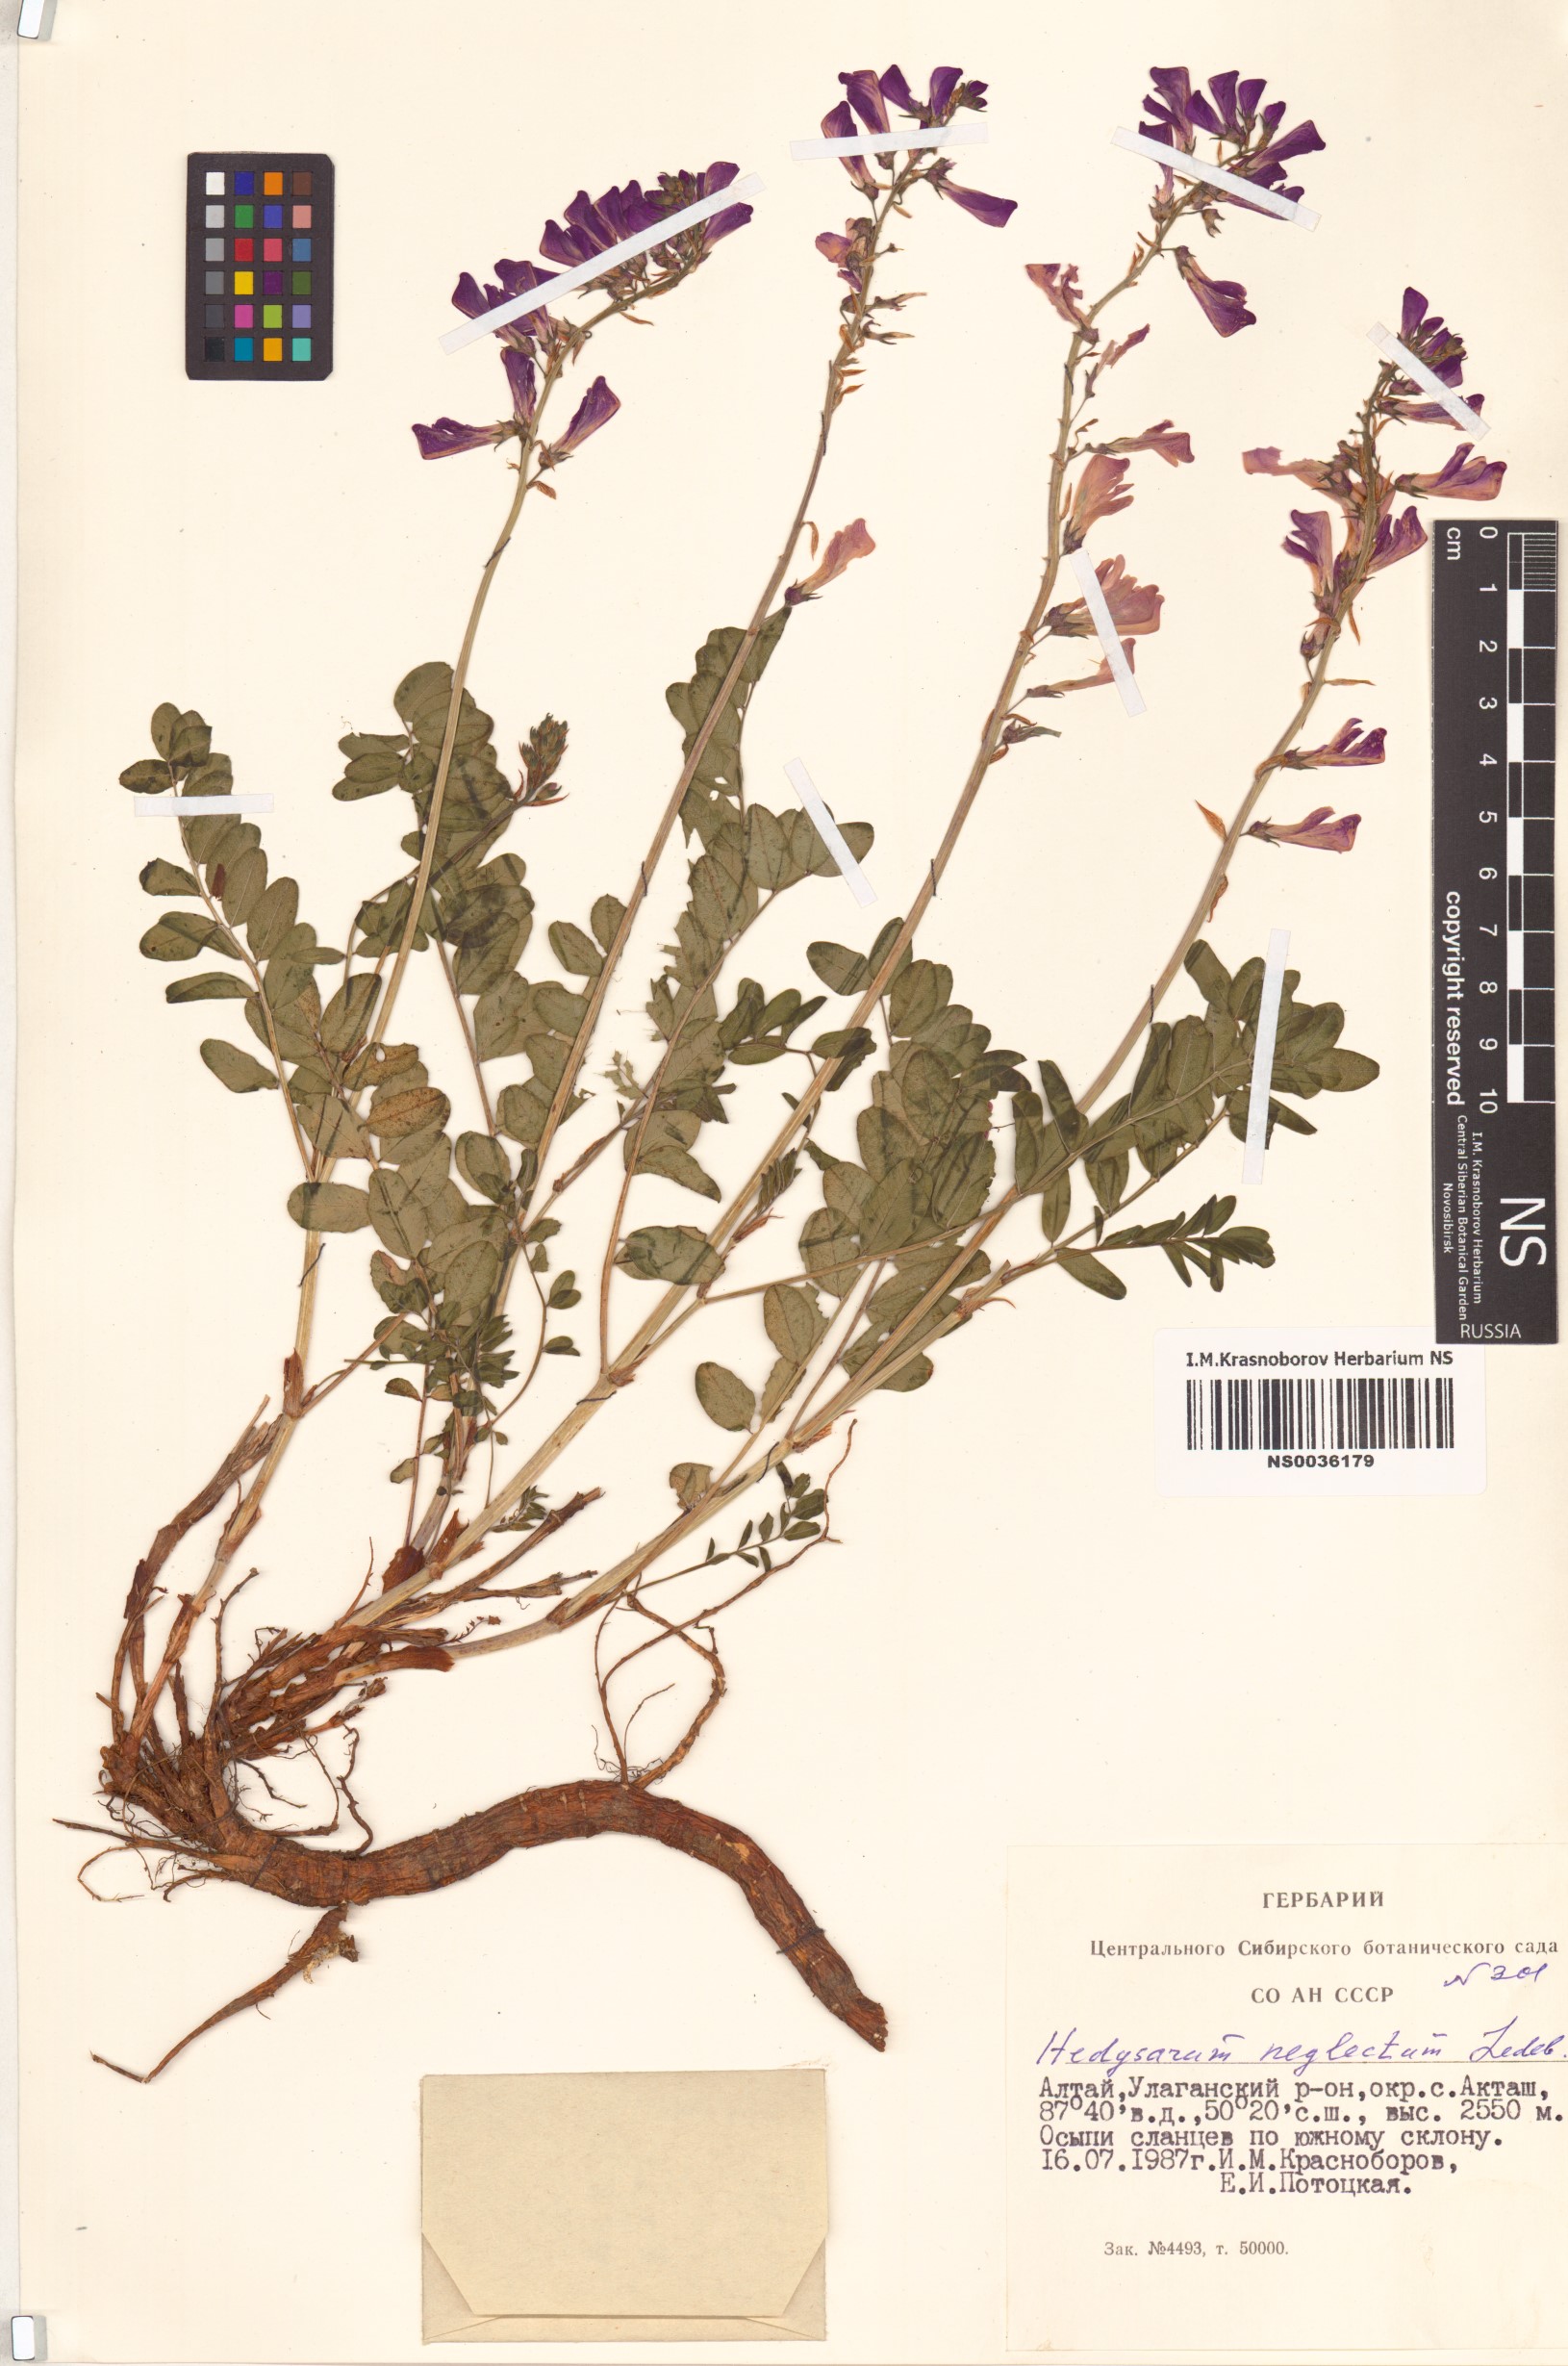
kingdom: Plantae
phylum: Tracheophyta
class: Magnoliopsida
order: Fabales
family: Fabaceae
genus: Hedysarum
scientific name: Hedysarum neglectum
